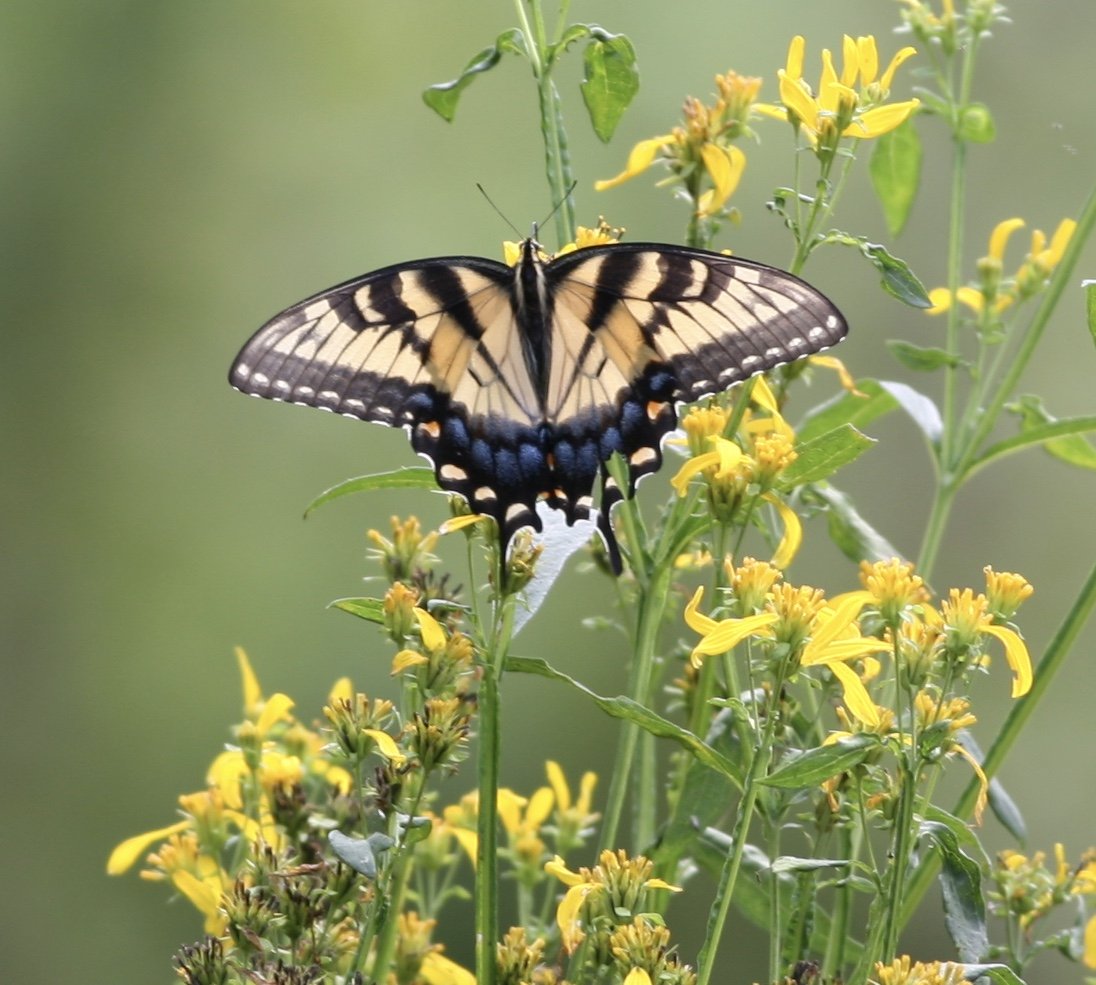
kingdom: Animalia
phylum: Arthropoda
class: Insecta
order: Lepidoptera
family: Papilionidae
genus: Pterourus
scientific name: Pterourus glaucus
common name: Eastern Tiger Swallowtail
